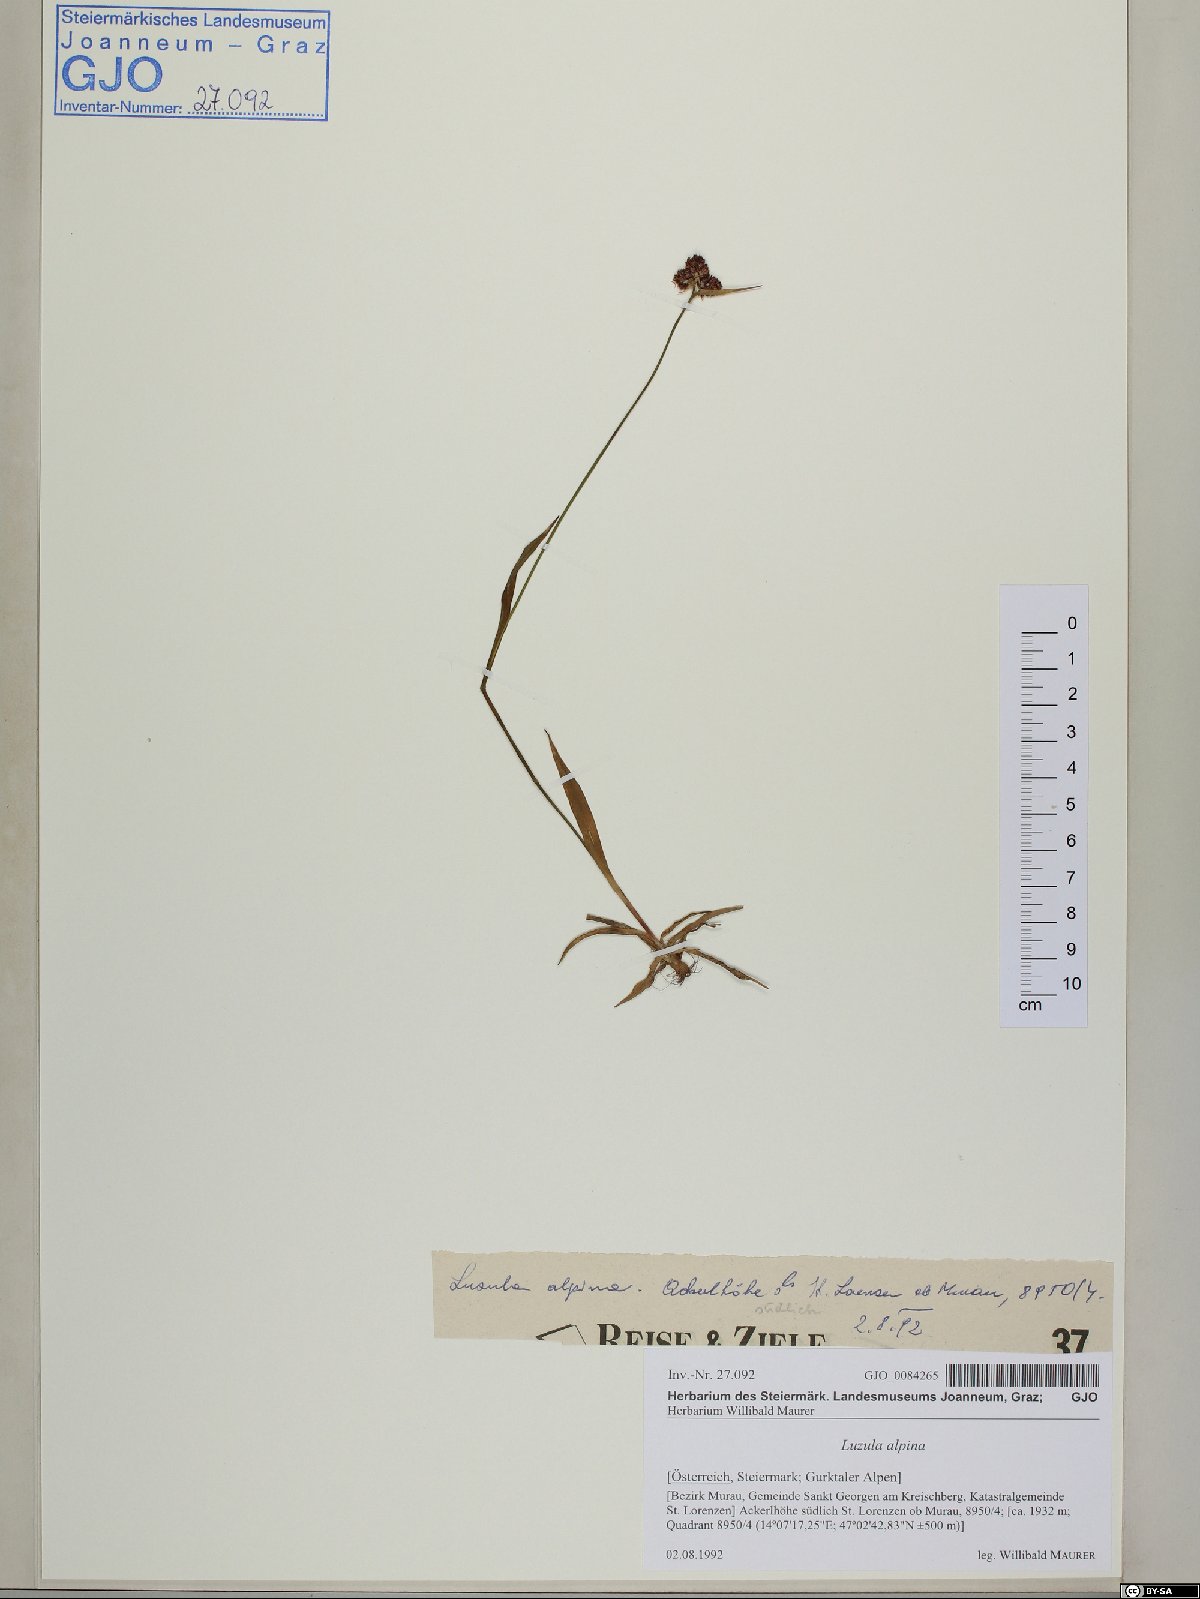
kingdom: Plantae
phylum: Tracheophyta
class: Liliopsida
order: Poales
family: Juncaceae
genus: Luzula
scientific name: Luzula alpina
